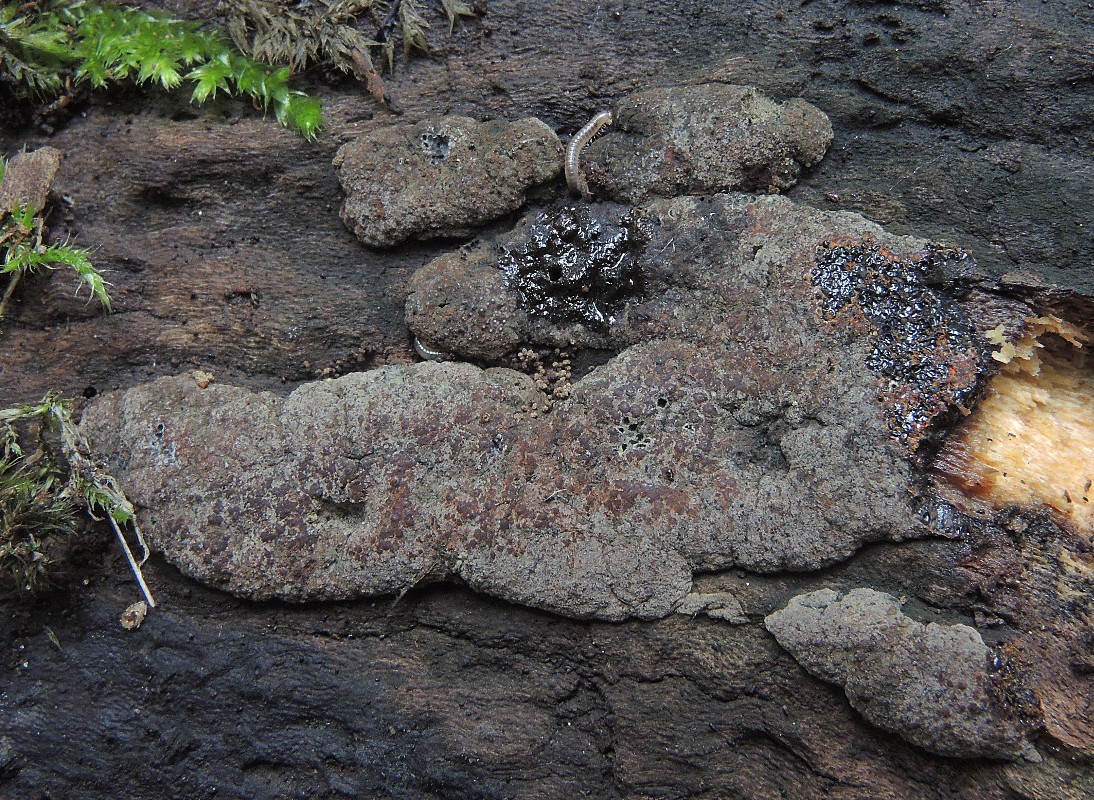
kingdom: Fungi
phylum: Ascomycota
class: Sordariomycetes
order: Xylariales
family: Hypoxylaceae
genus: Hypoxylon
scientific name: Hypoxylon rubiginosum
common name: rustfarvet kulbær
